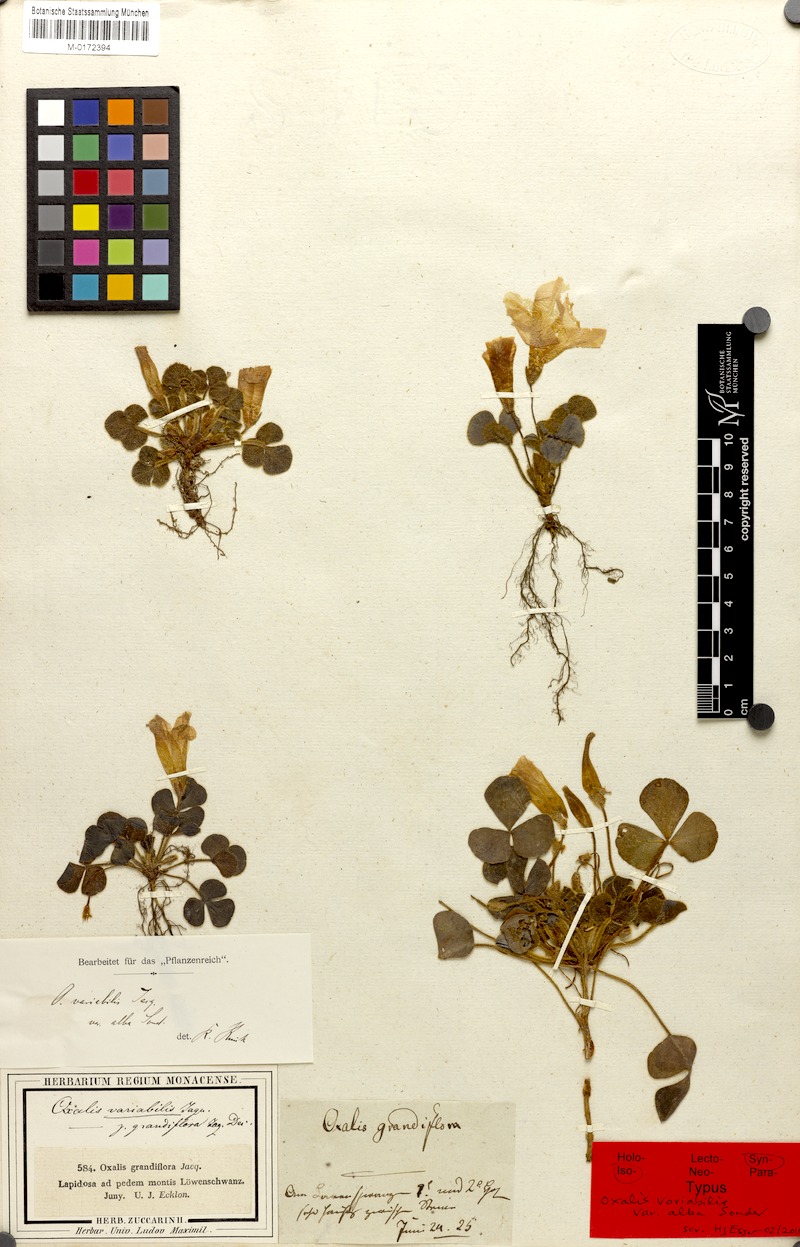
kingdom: Plantae
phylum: Tracheophyta
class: Magnoliopsida
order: Oxalidales
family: Oxalidaceae
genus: Oxalis
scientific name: Oxalis purpurea
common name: Purple woodsorrel
